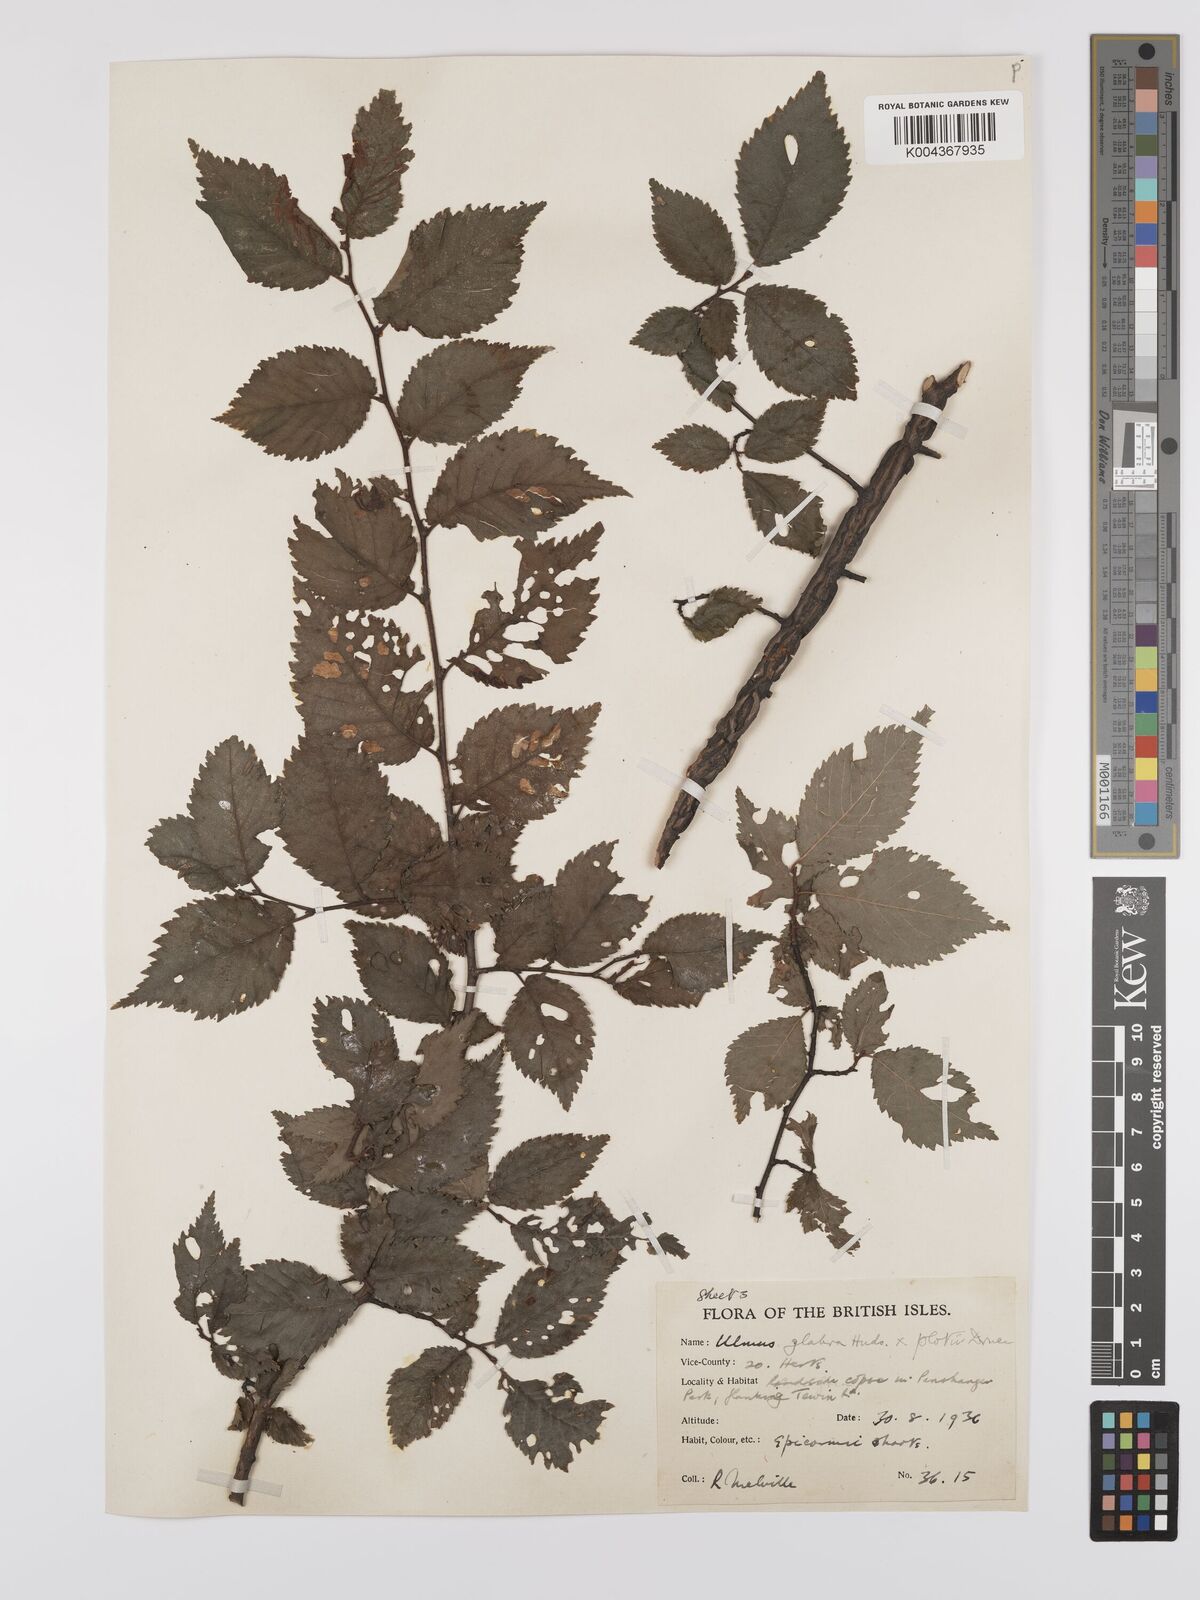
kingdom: Plantae
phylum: Tracheophyta
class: Magnoliopsida
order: Rosales
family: Ulmaceae
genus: Ulmus
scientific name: Ulmus glabra
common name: Wych elm
